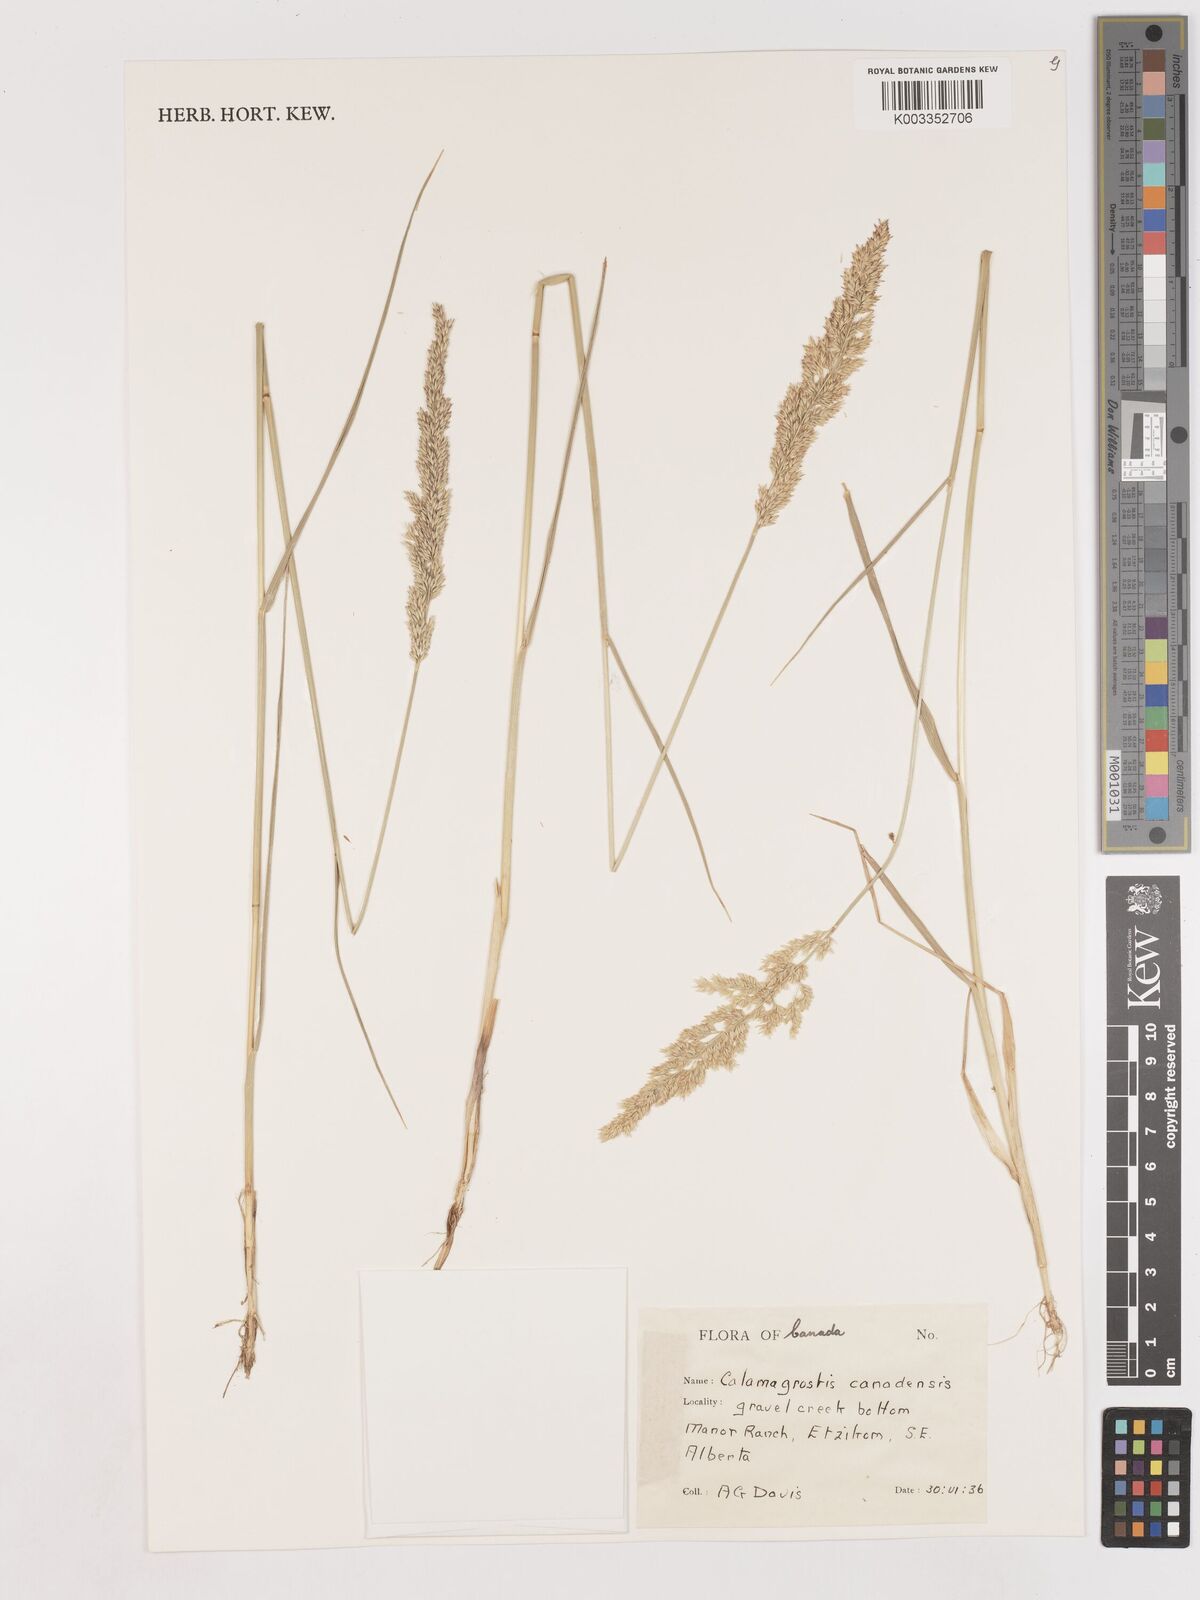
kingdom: Plantae
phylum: Tracheophyta
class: Liliopsida
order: Poales
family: Poaceae
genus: Calamagrostis
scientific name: Calamagrostis canadensis
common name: Canada bluejoint
